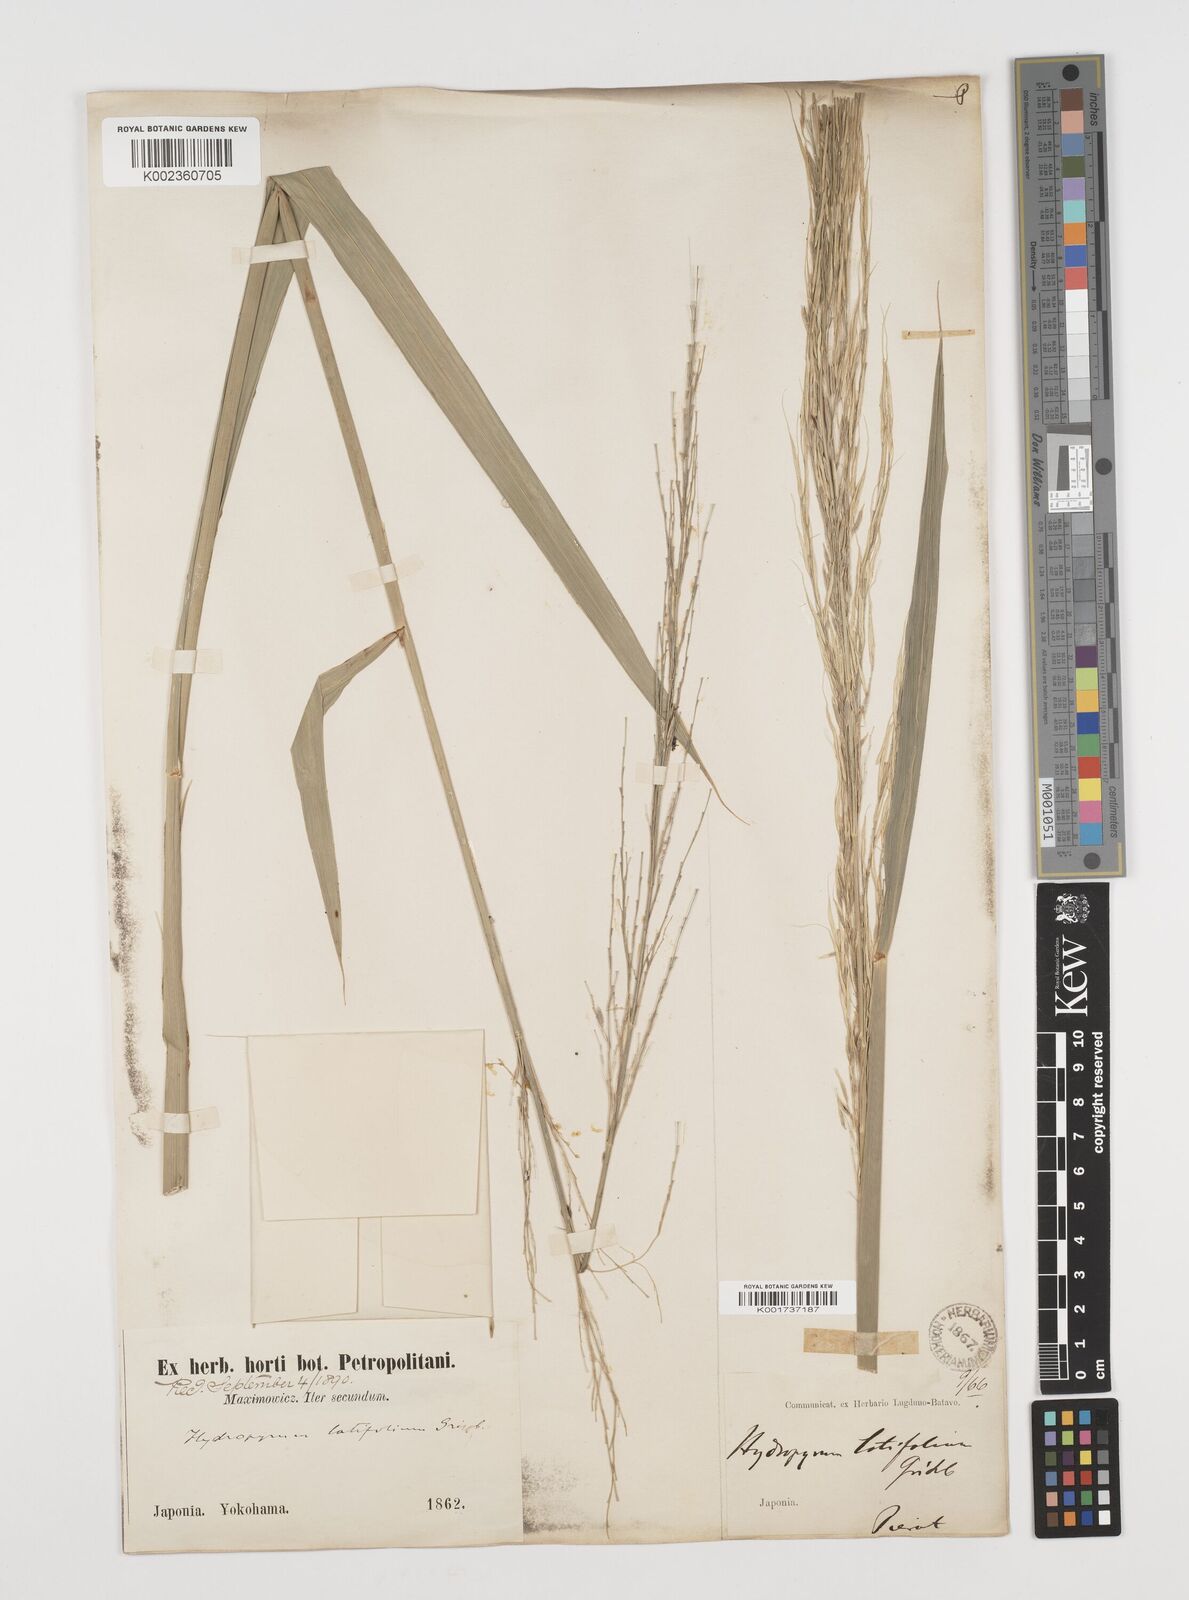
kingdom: Plantae
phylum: Tracheophyta
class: Liliopsida
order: Poales
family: Poaceae
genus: Zizania
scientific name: Zizania latifolia
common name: Manchurian wildrice
